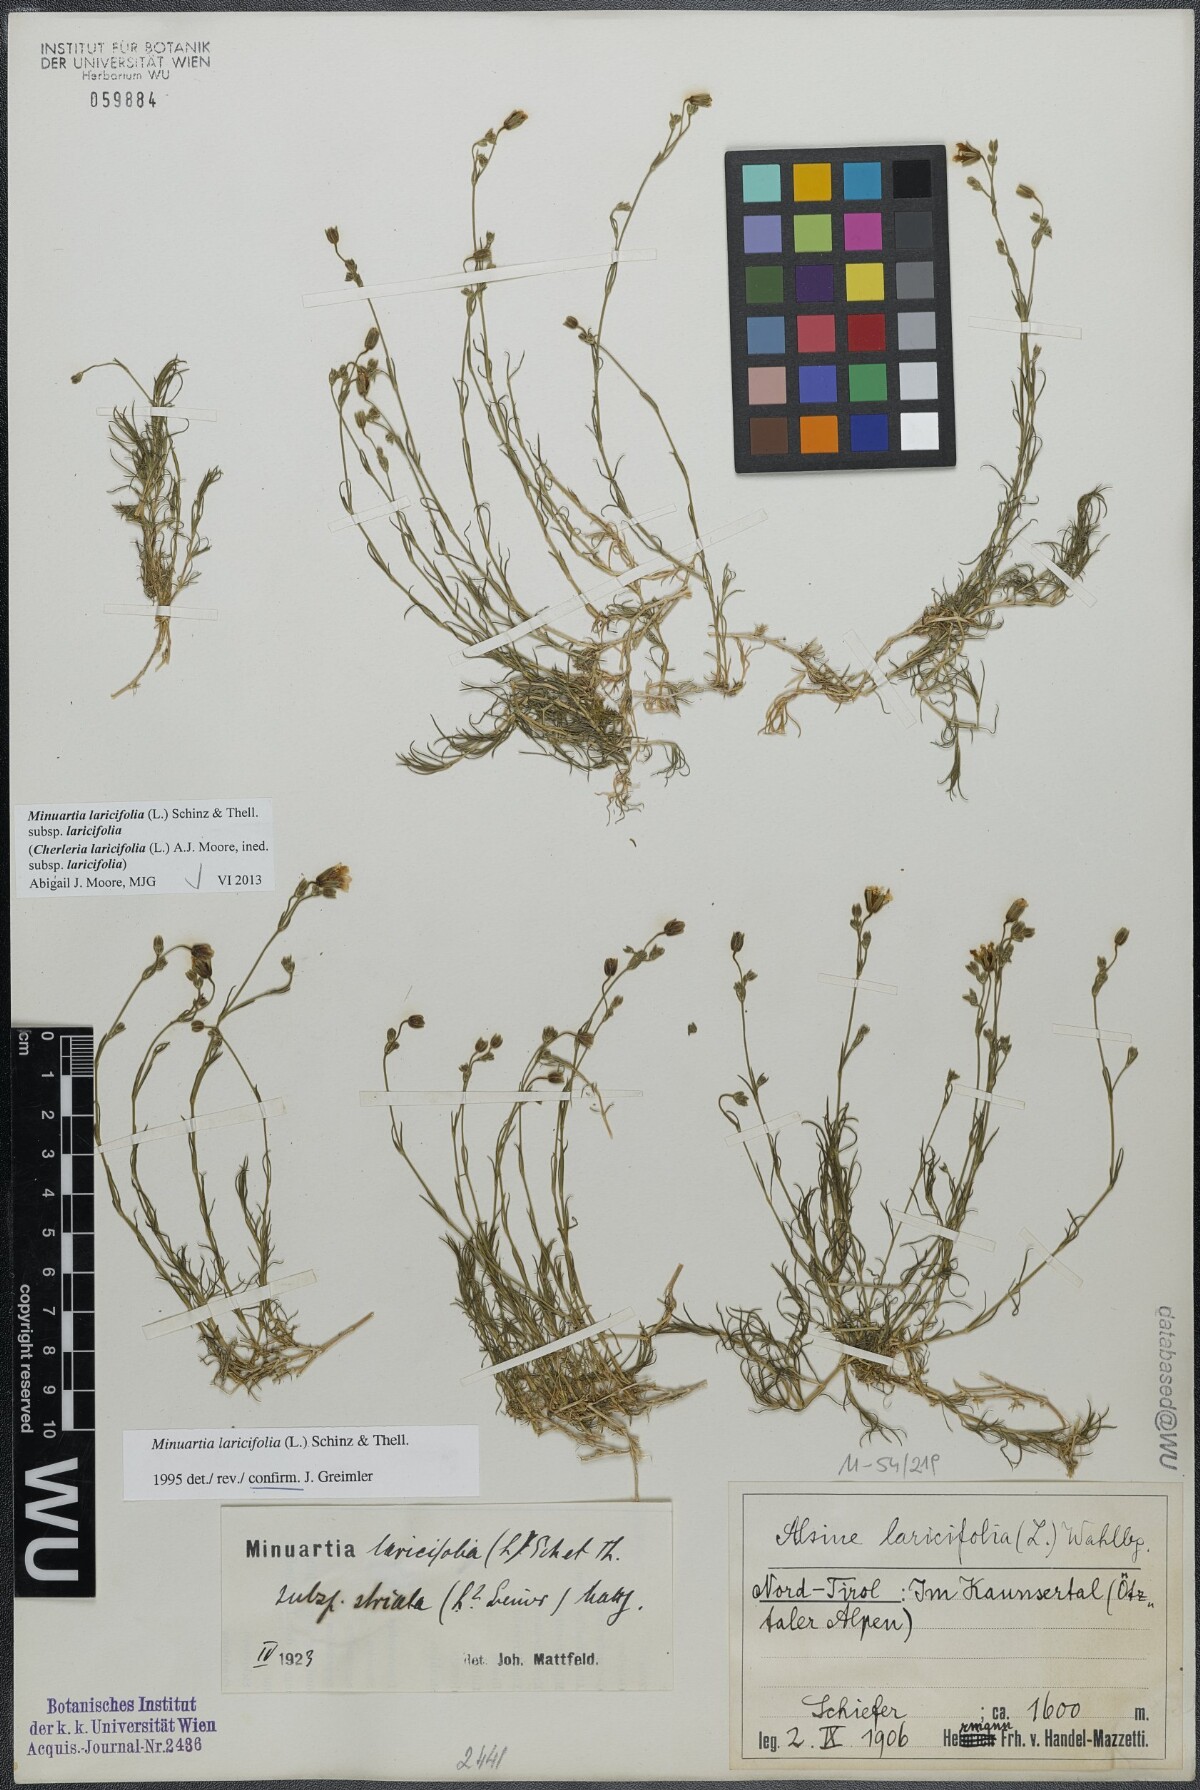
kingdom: Plantae
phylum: Tracheophyta
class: Magnoliopsida
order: Caryophyllales
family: Caryophyllaceae
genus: Cherleria
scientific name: Cherleria laricifolia
